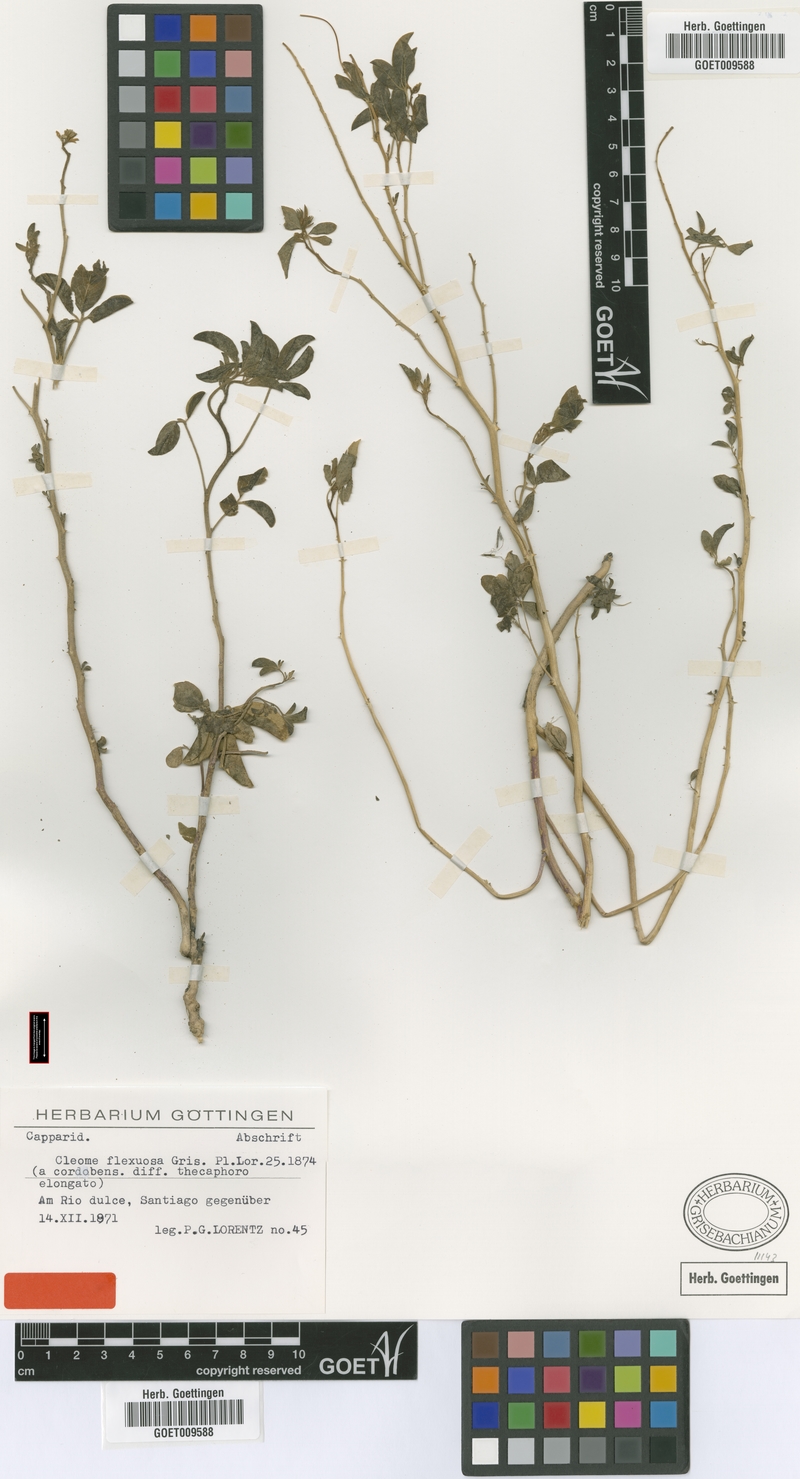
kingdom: Plantae
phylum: Tracheophyta
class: Magnoliopsida
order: Brassicales
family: Cleomaceae
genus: Tarenaya
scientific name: Tarenaya tucumanensis
